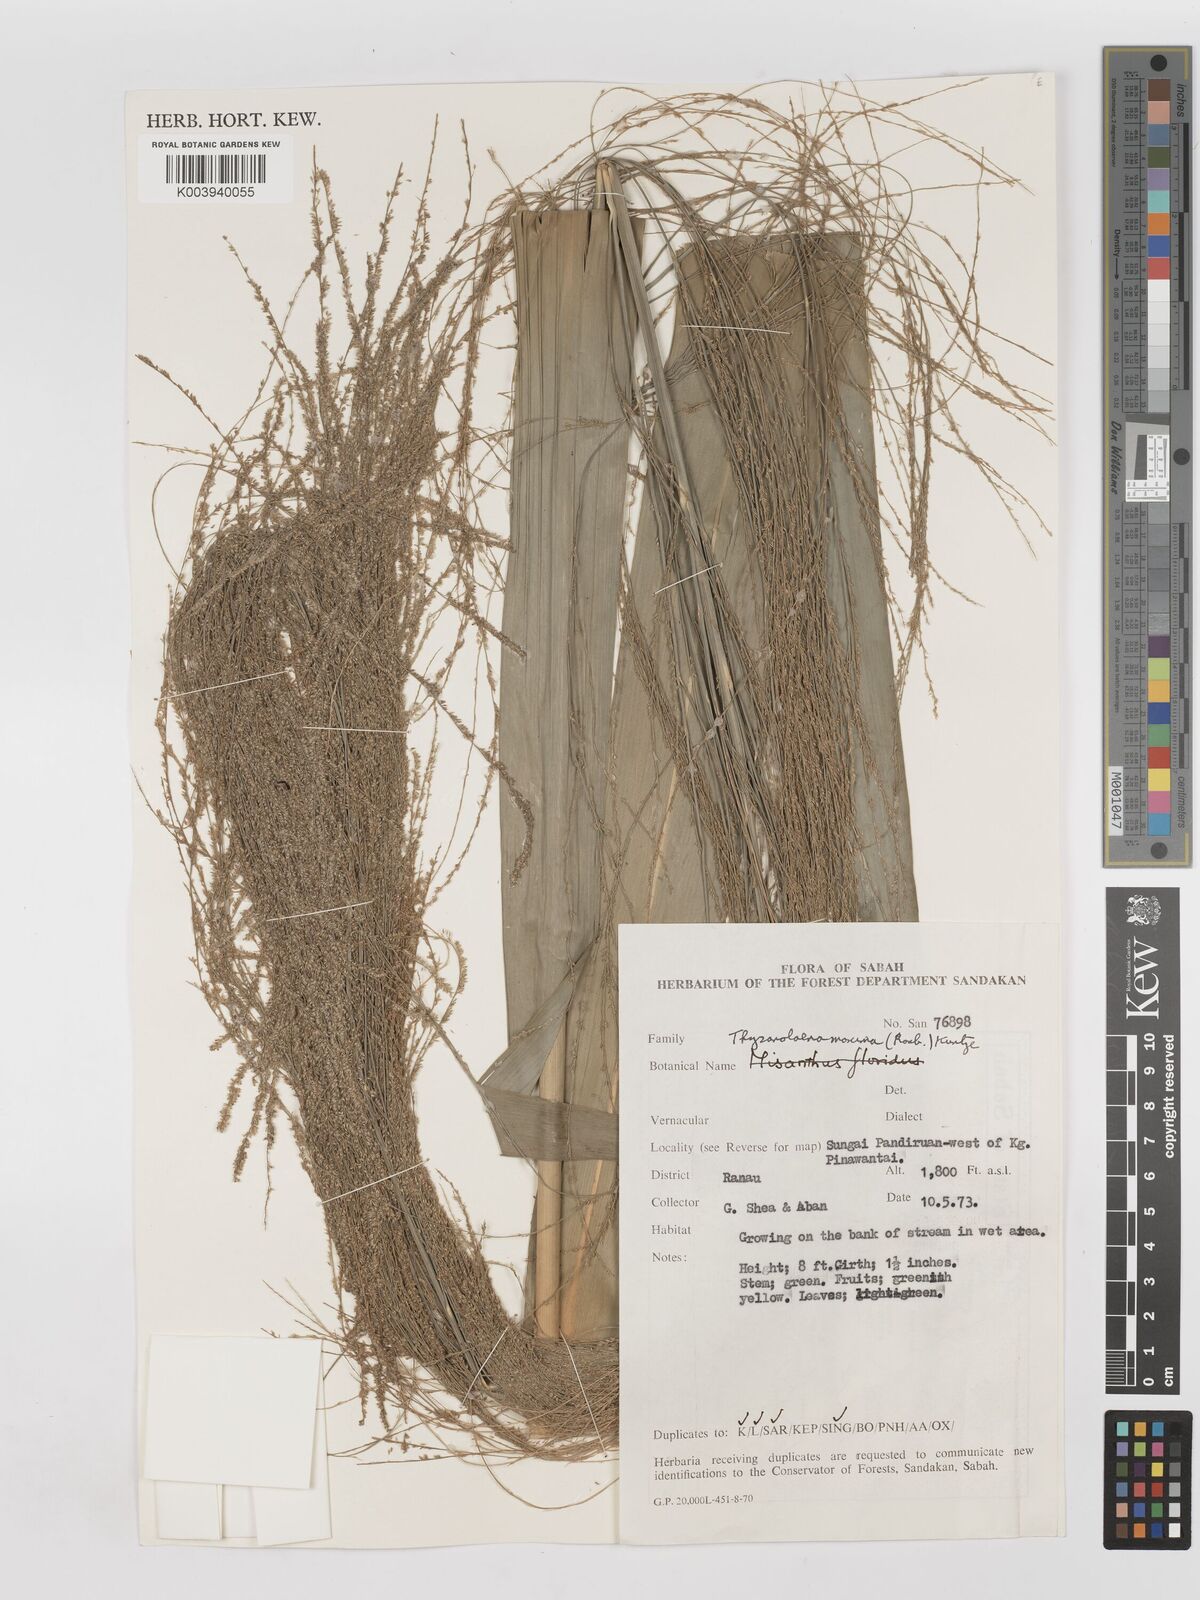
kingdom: Plantae
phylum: Tracheophyta
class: Liliopsida
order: Poales
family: Poaceae
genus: Thysanolaena
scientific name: Thysanolaena latifolia
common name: Tiger grass
